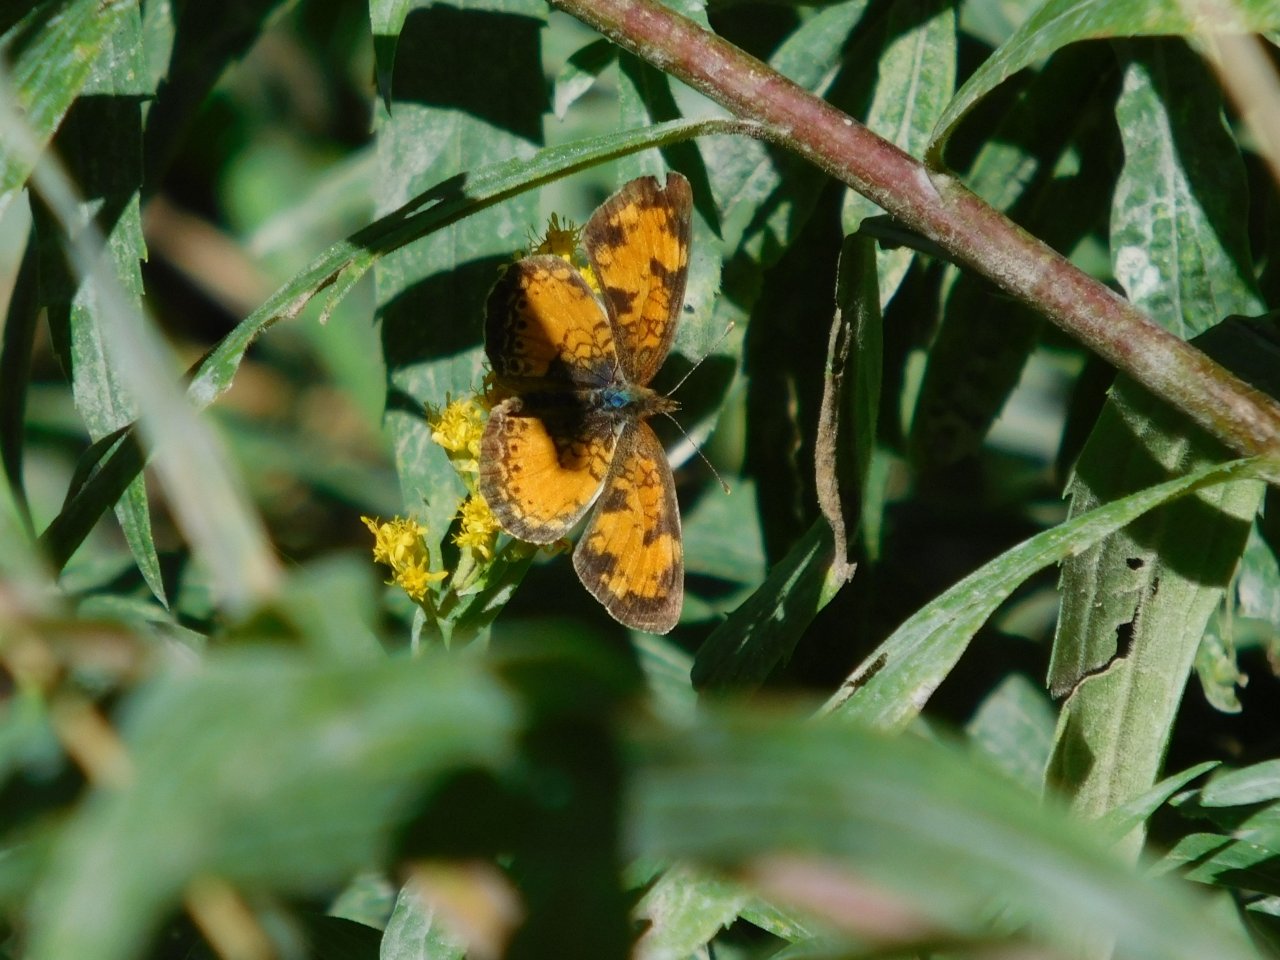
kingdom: Animalia
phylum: Arthropoda
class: Insecta
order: Lepidoptera
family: Nymphalidae
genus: Phyciodes
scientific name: Phyciodes tharos
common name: Northern Crescent
